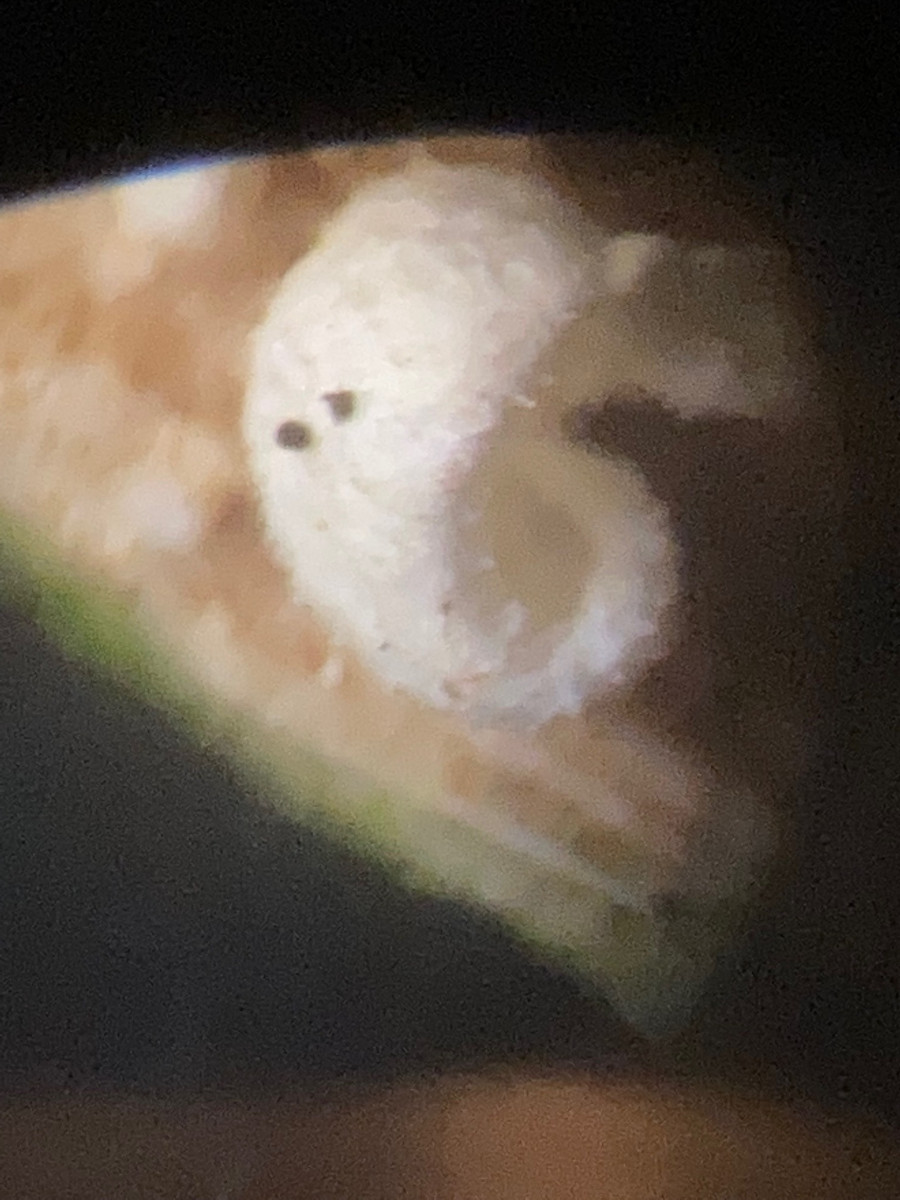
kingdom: Fungi
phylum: Basidiomycota
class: Agaricomycetes
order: Agaricales
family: Tricholomataceae
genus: Cellypha
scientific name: Cellypha goldbachii
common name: dråbeskål
